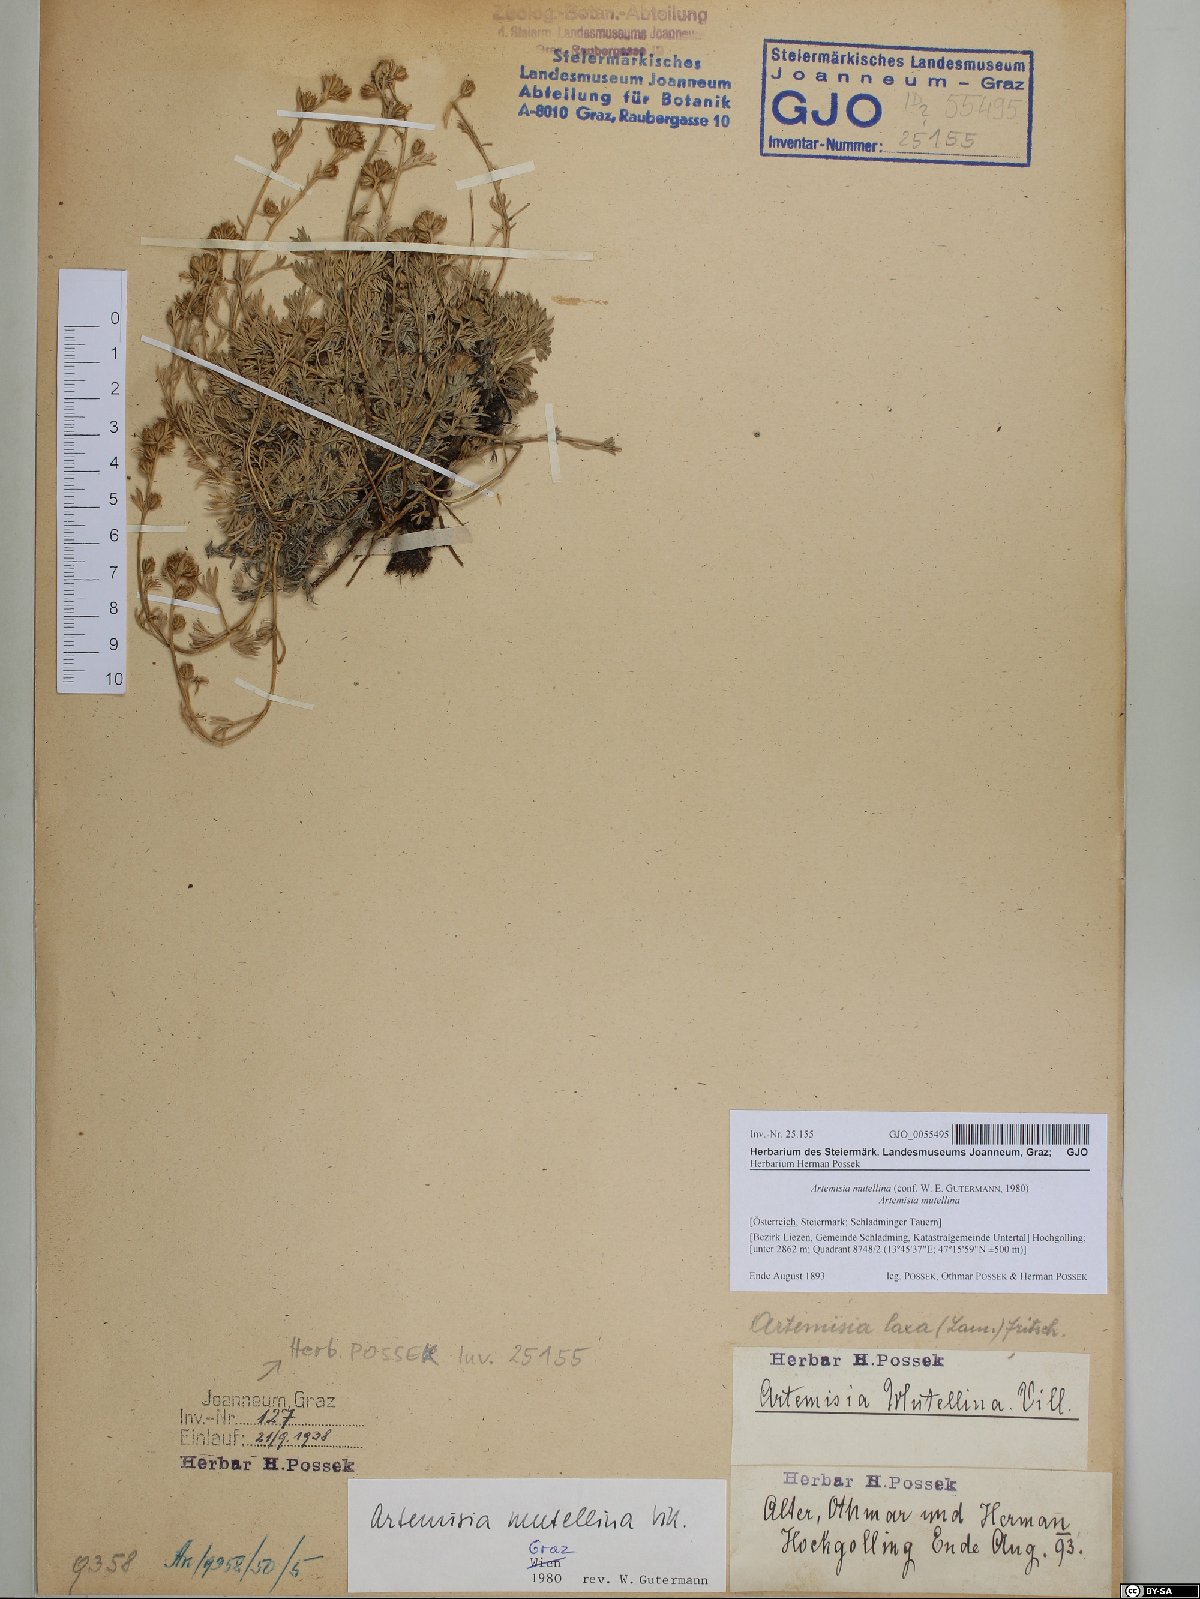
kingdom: Plantae
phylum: Tracheophyta
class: Magnoliopsida
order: Asterales
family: Asteraceae
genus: Artemisia
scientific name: Artemisia mutellina
